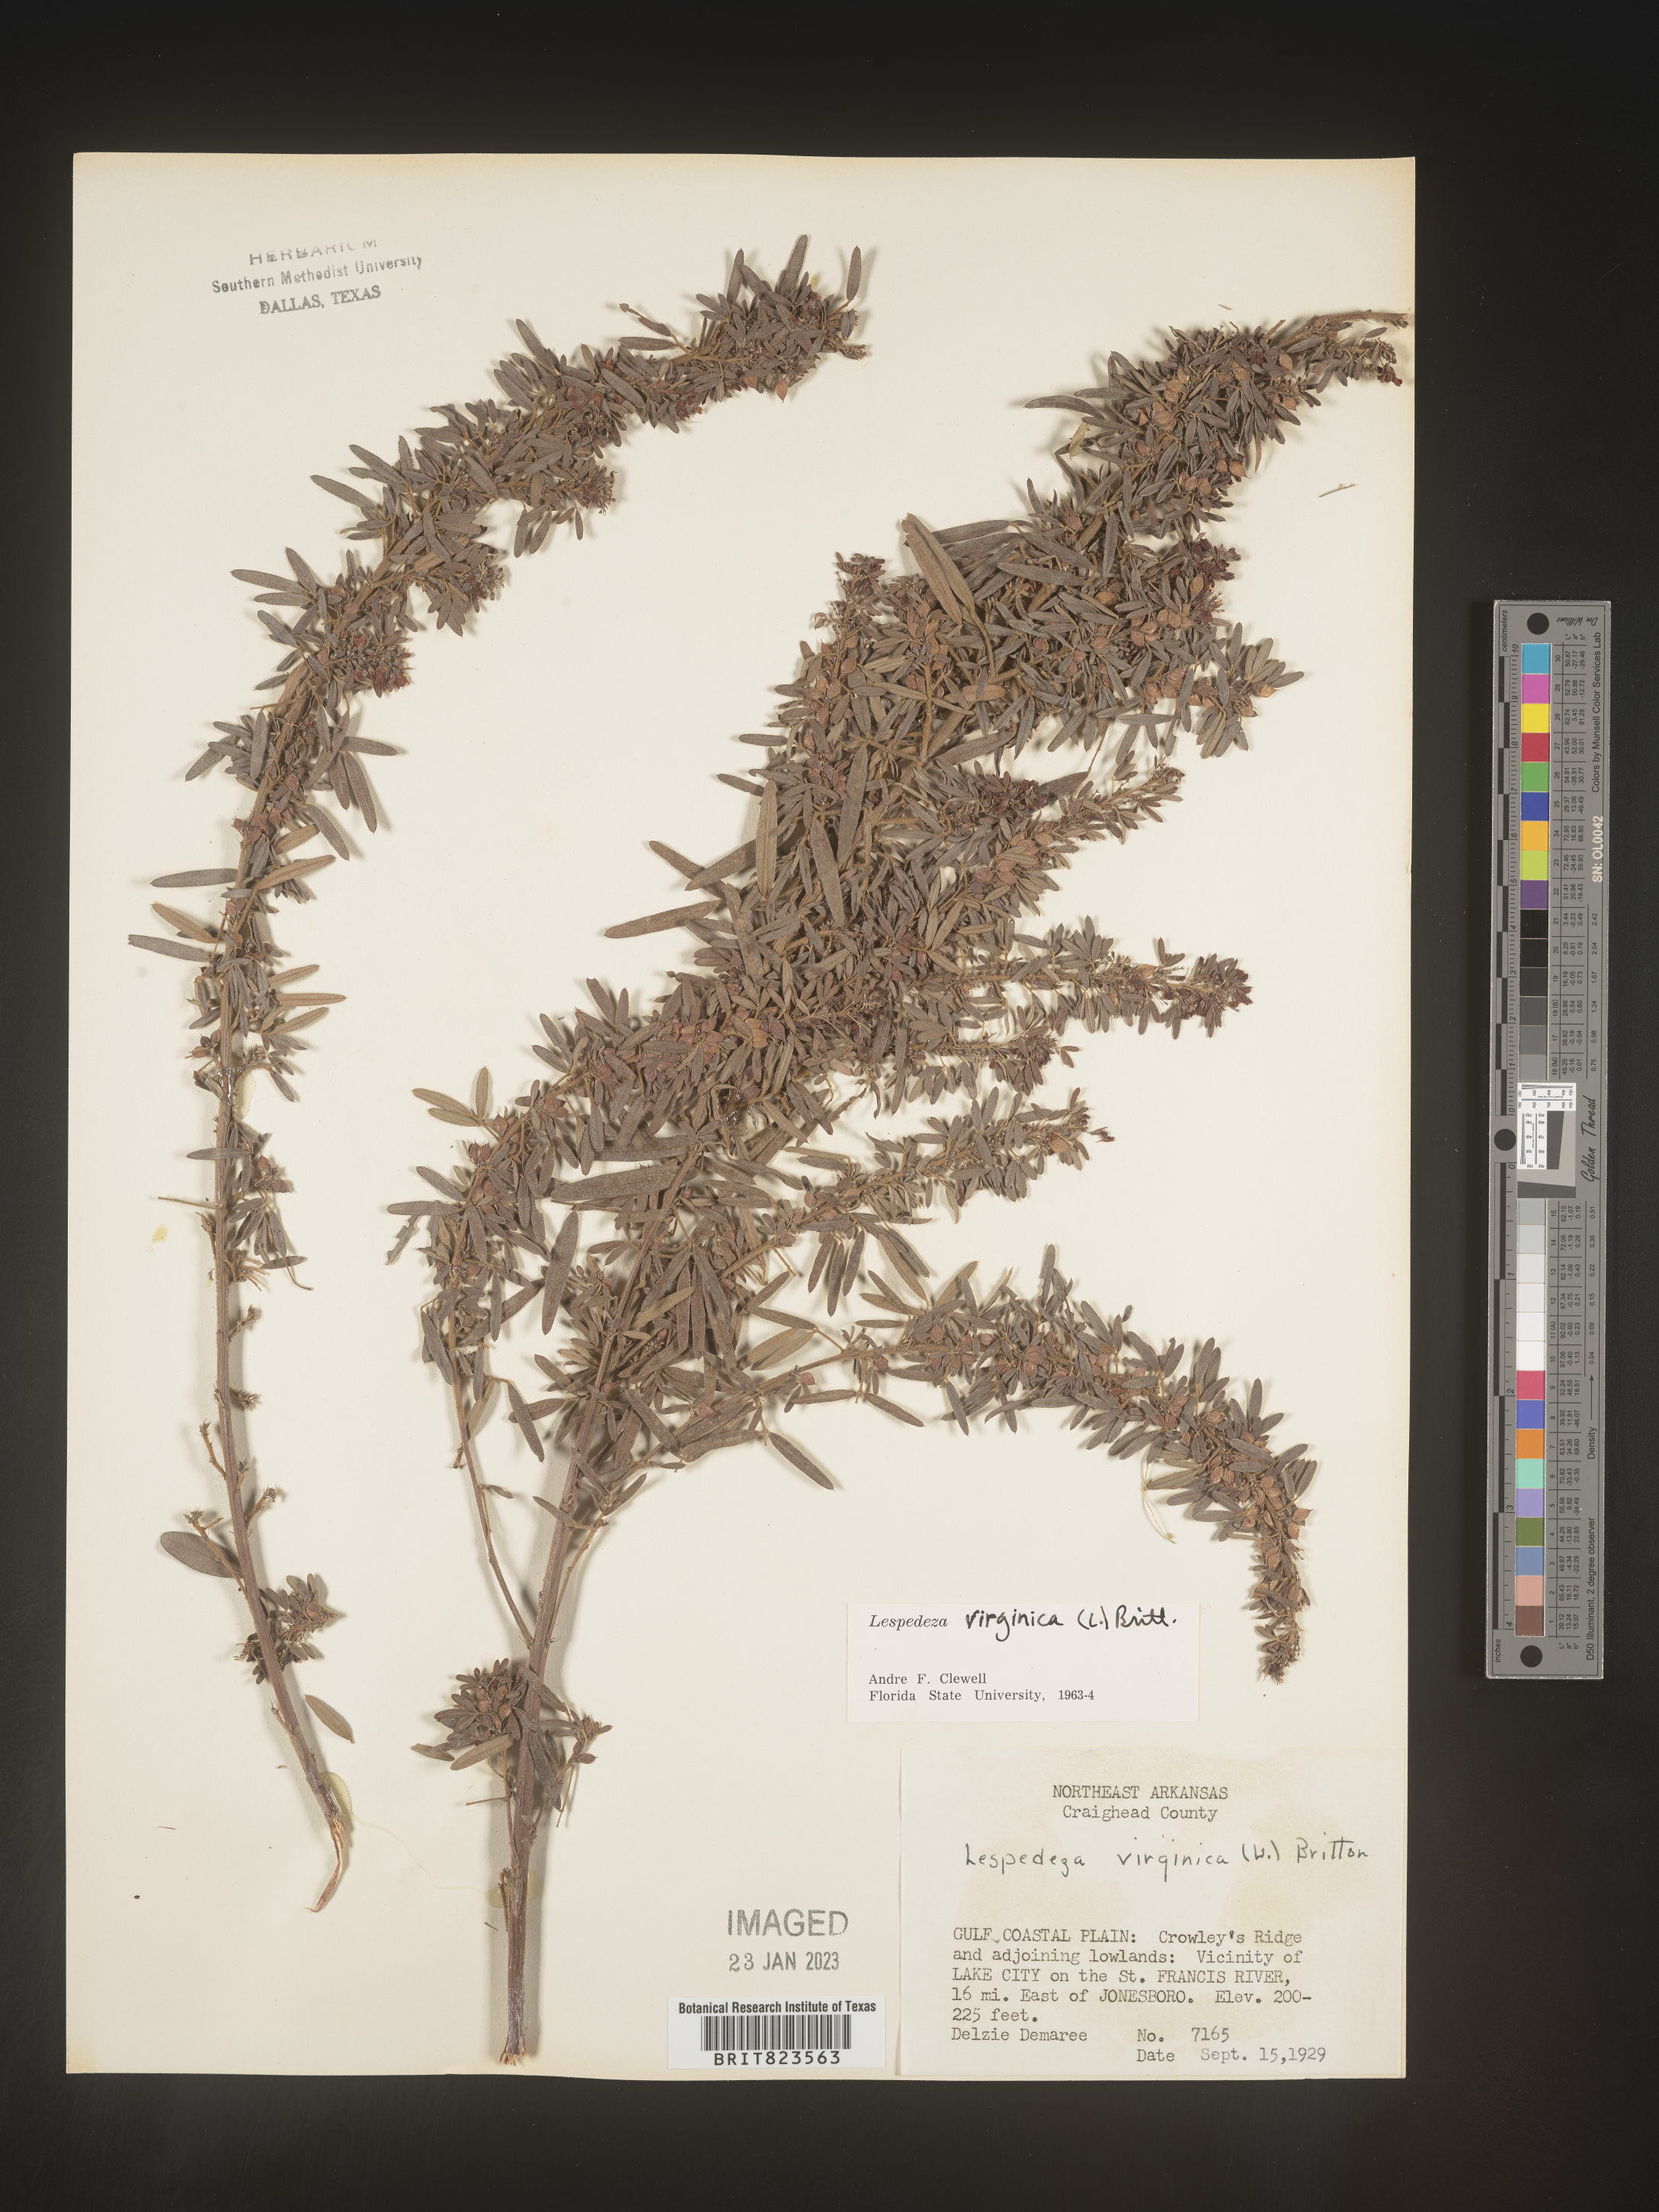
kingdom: Plantae
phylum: Tracheophyta
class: Magnoliopsida
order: Fabales
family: Fabaceae
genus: Lespedeza
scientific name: Lespedeza virginica
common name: Slender bush-clover
